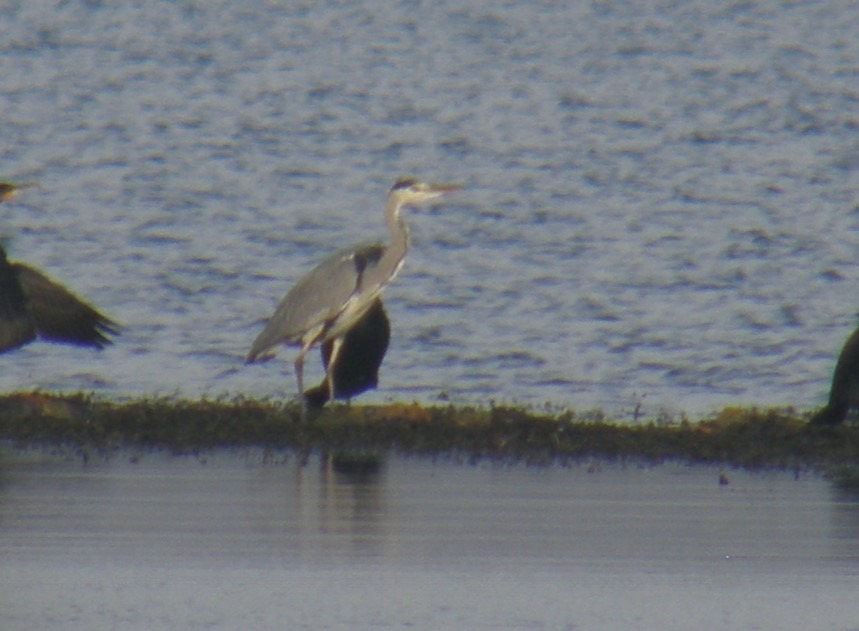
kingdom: Animalia
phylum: Chordata
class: Aves
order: Pelecaniformes
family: Ardeidae
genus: Ardea
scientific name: Ardea cinerea
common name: Fiskehejre
